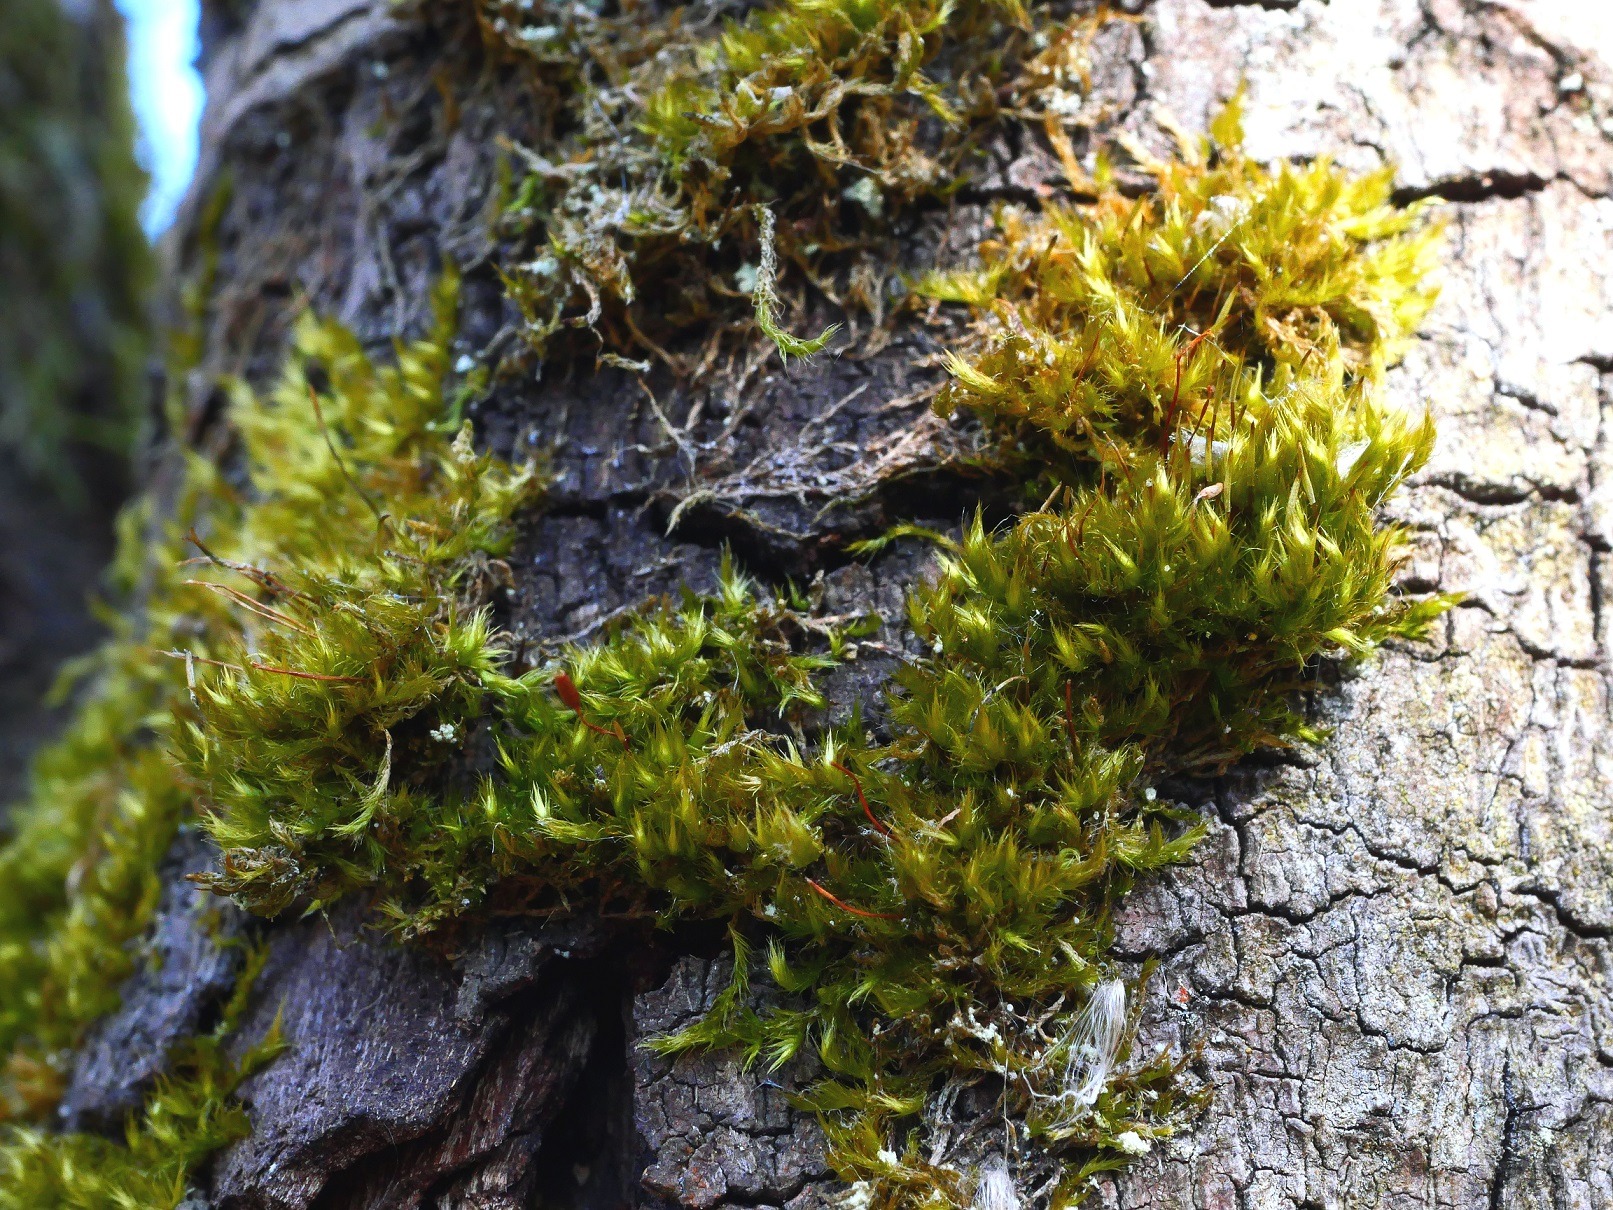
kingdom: Plantae
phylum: Bryophyta
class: Bryopsida
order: Hypnales
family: Pylaisiaceae
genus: Pylaisia
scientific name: Pylaisia polyantha
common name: Mangefrugtet aspemos
